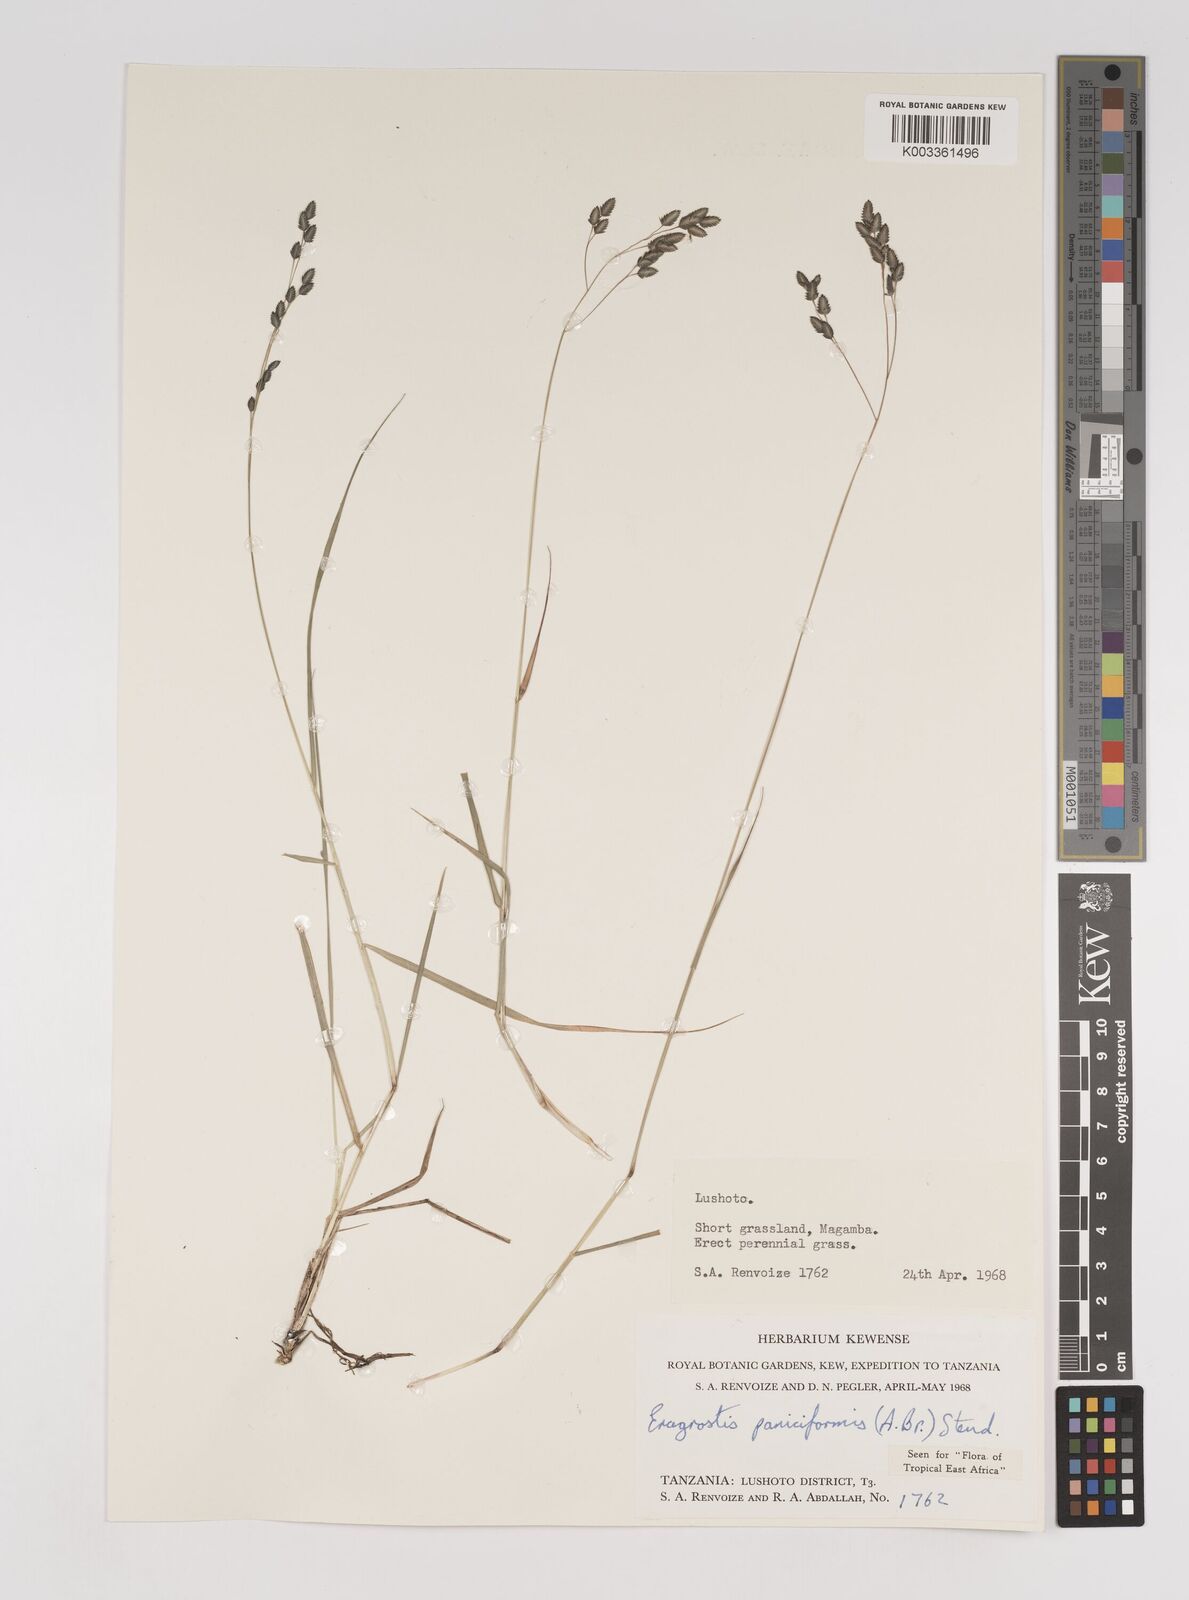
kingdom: Plantae
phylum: Tracheophyta
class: Liliopsida
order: Poales
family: Poaceae
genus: Eragrostis
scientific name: Eragrostis paniciformis
